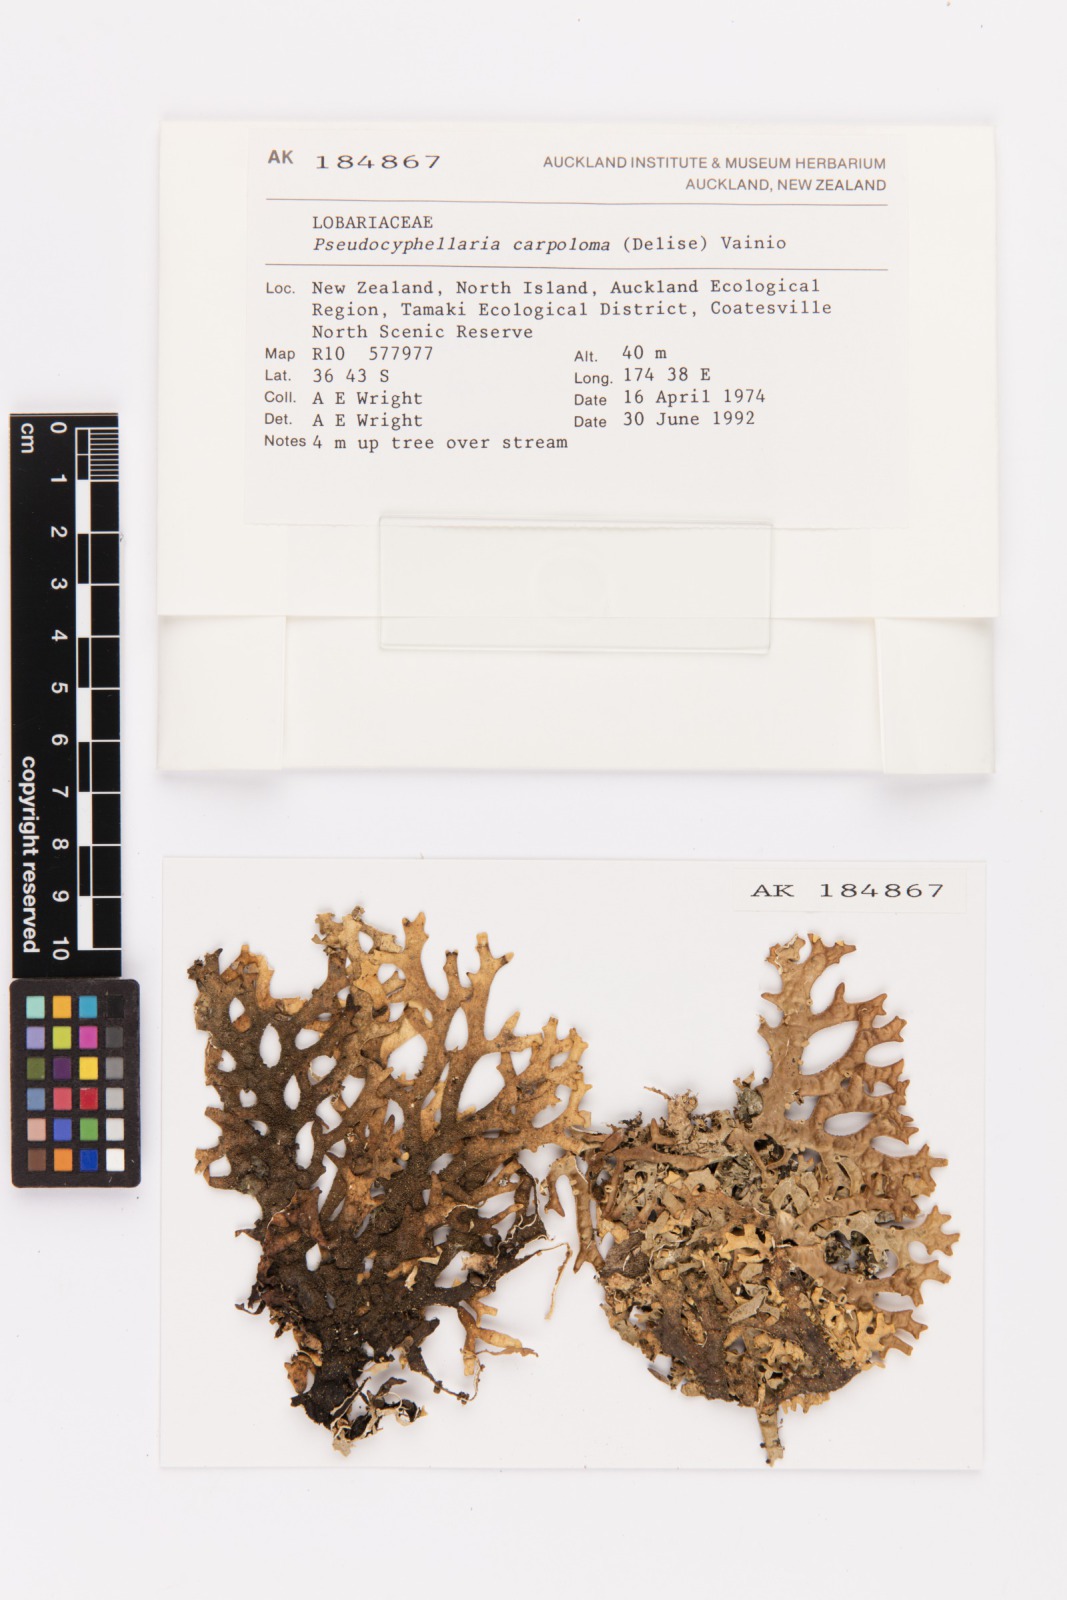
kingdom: Fungi
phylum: Ascomycota
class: Lecanoromycetes
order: Peltigerales
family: Lobariaceae
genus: Pseudocyphellaria
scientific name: Pseudocyphellaria carpoloma
